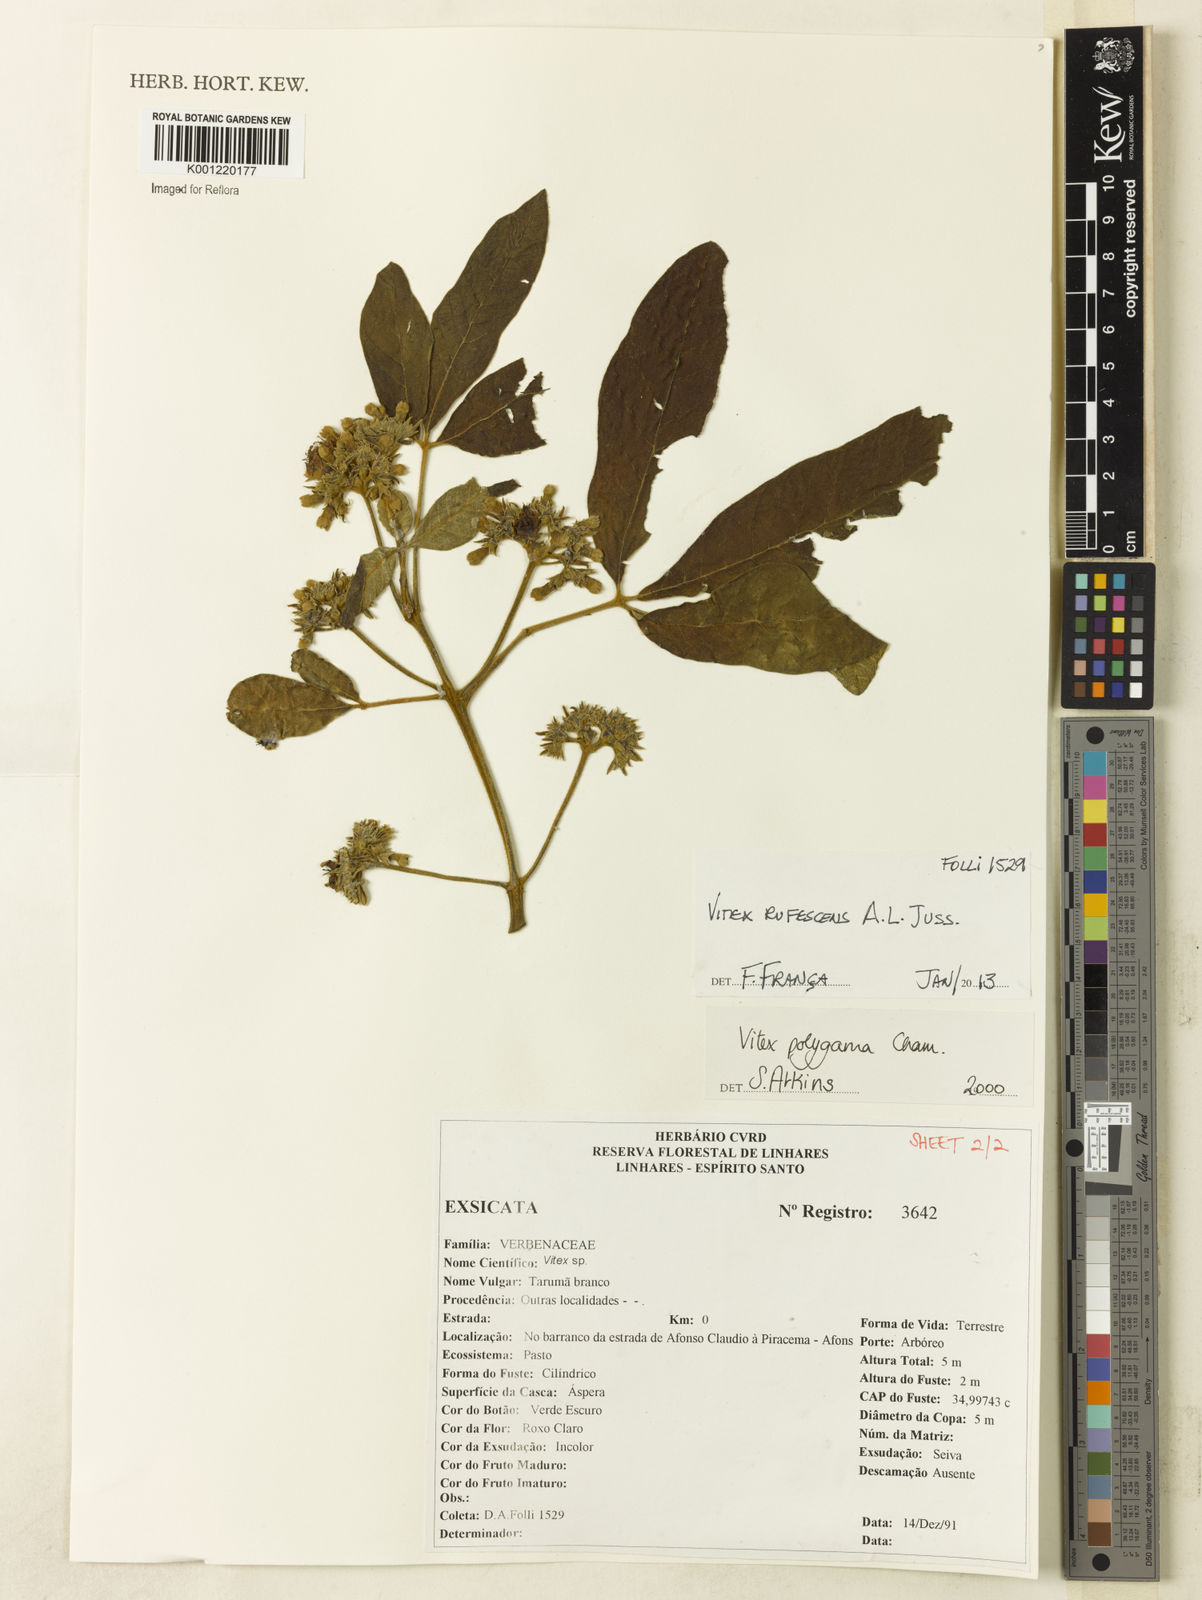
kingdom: Plantae
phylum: Tracheophyta
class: Magnoliopsida
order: Lamiales
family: Lamiaceae
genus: Vitex
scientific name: Vitex rufescens
